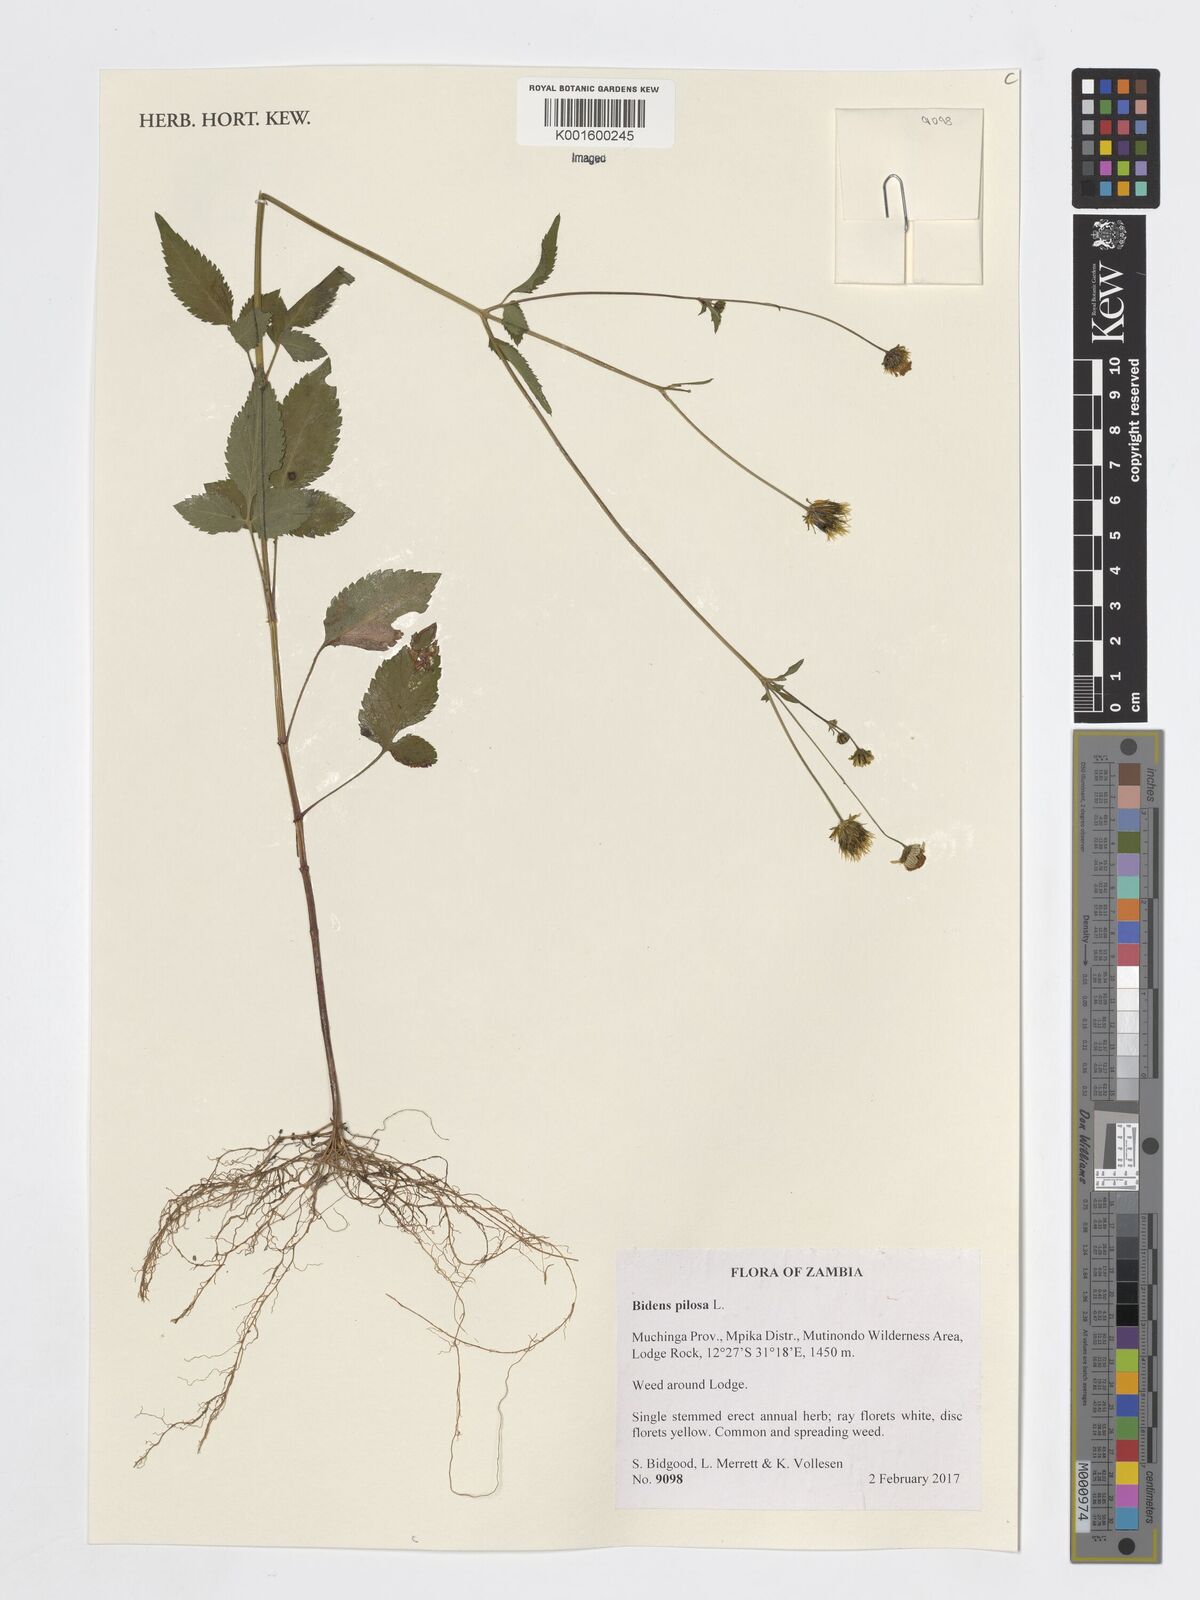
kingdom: Plantae
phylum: Tracheophyta
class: Magnoliopsida
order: Asterales
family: Asteraceae
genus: Bidens
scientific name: Bidens pilosa
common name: Black-jack
